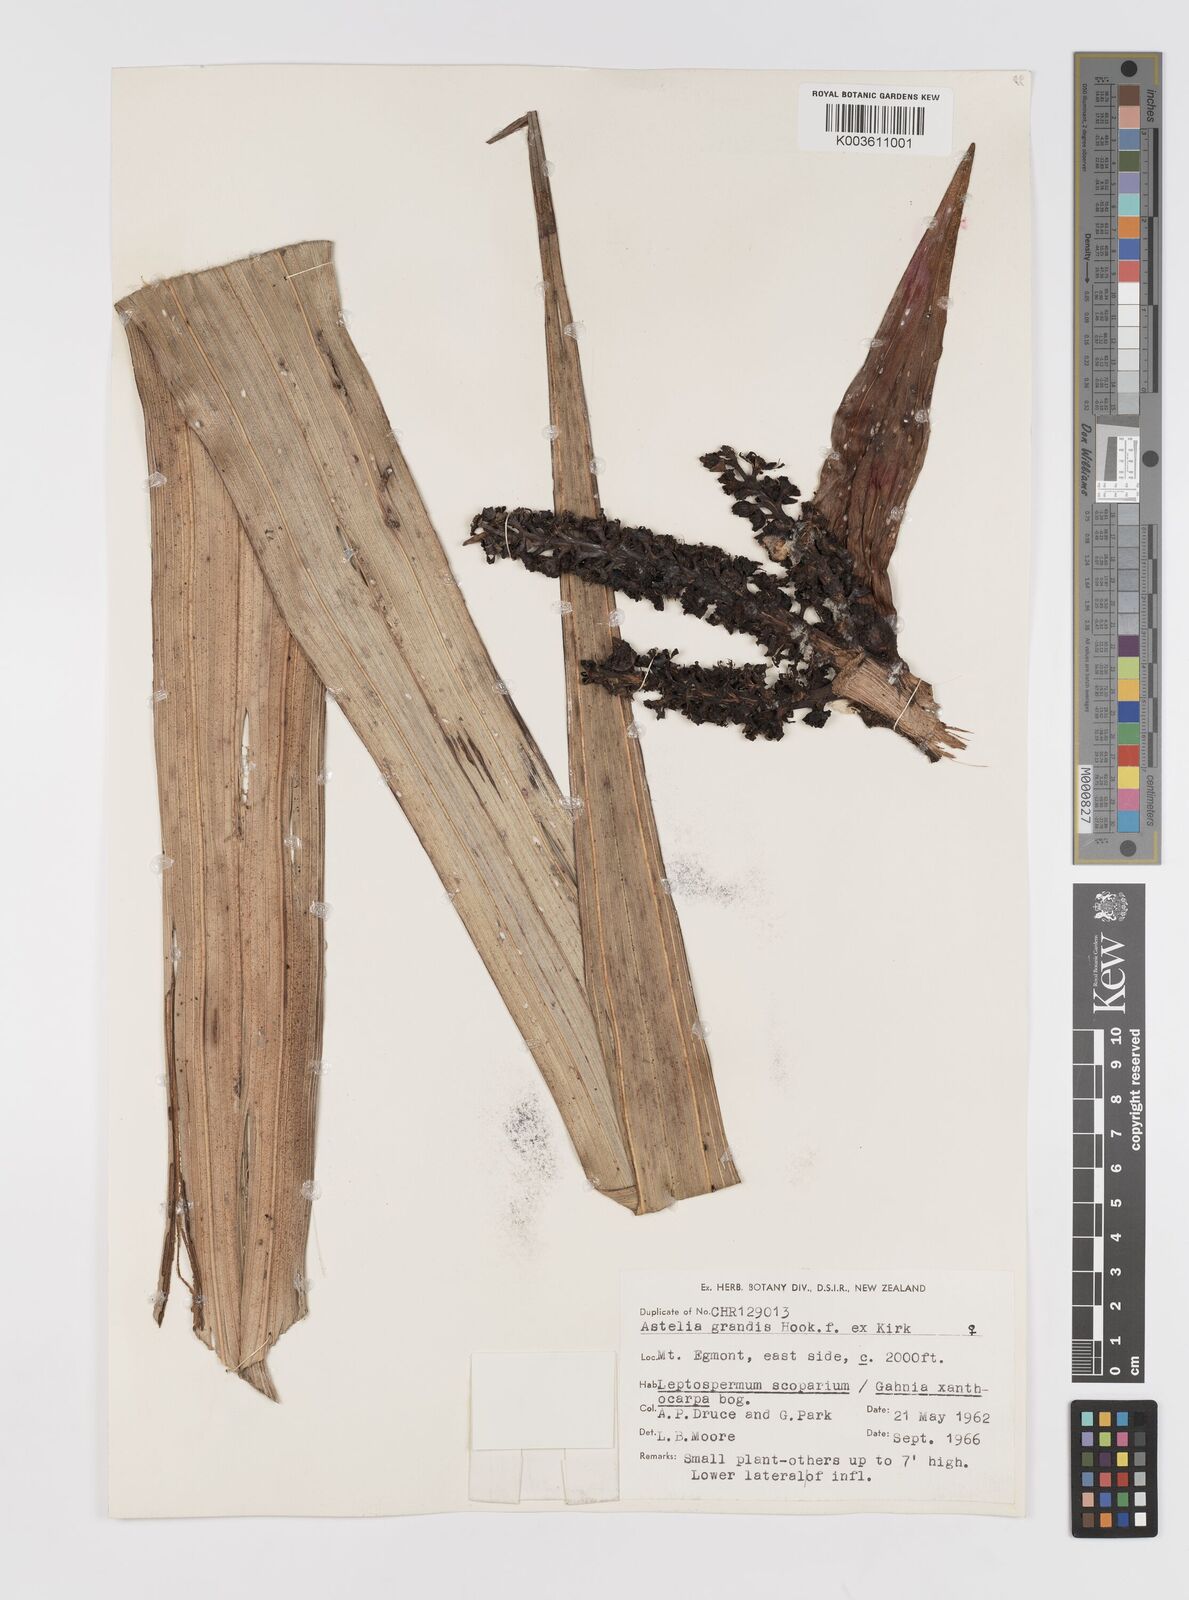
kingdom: Plantae
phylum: Tracheophyta
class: Liliopsida
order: Asparagales
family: Asteliaceae
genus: Astelia
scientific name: Astelia grandis
